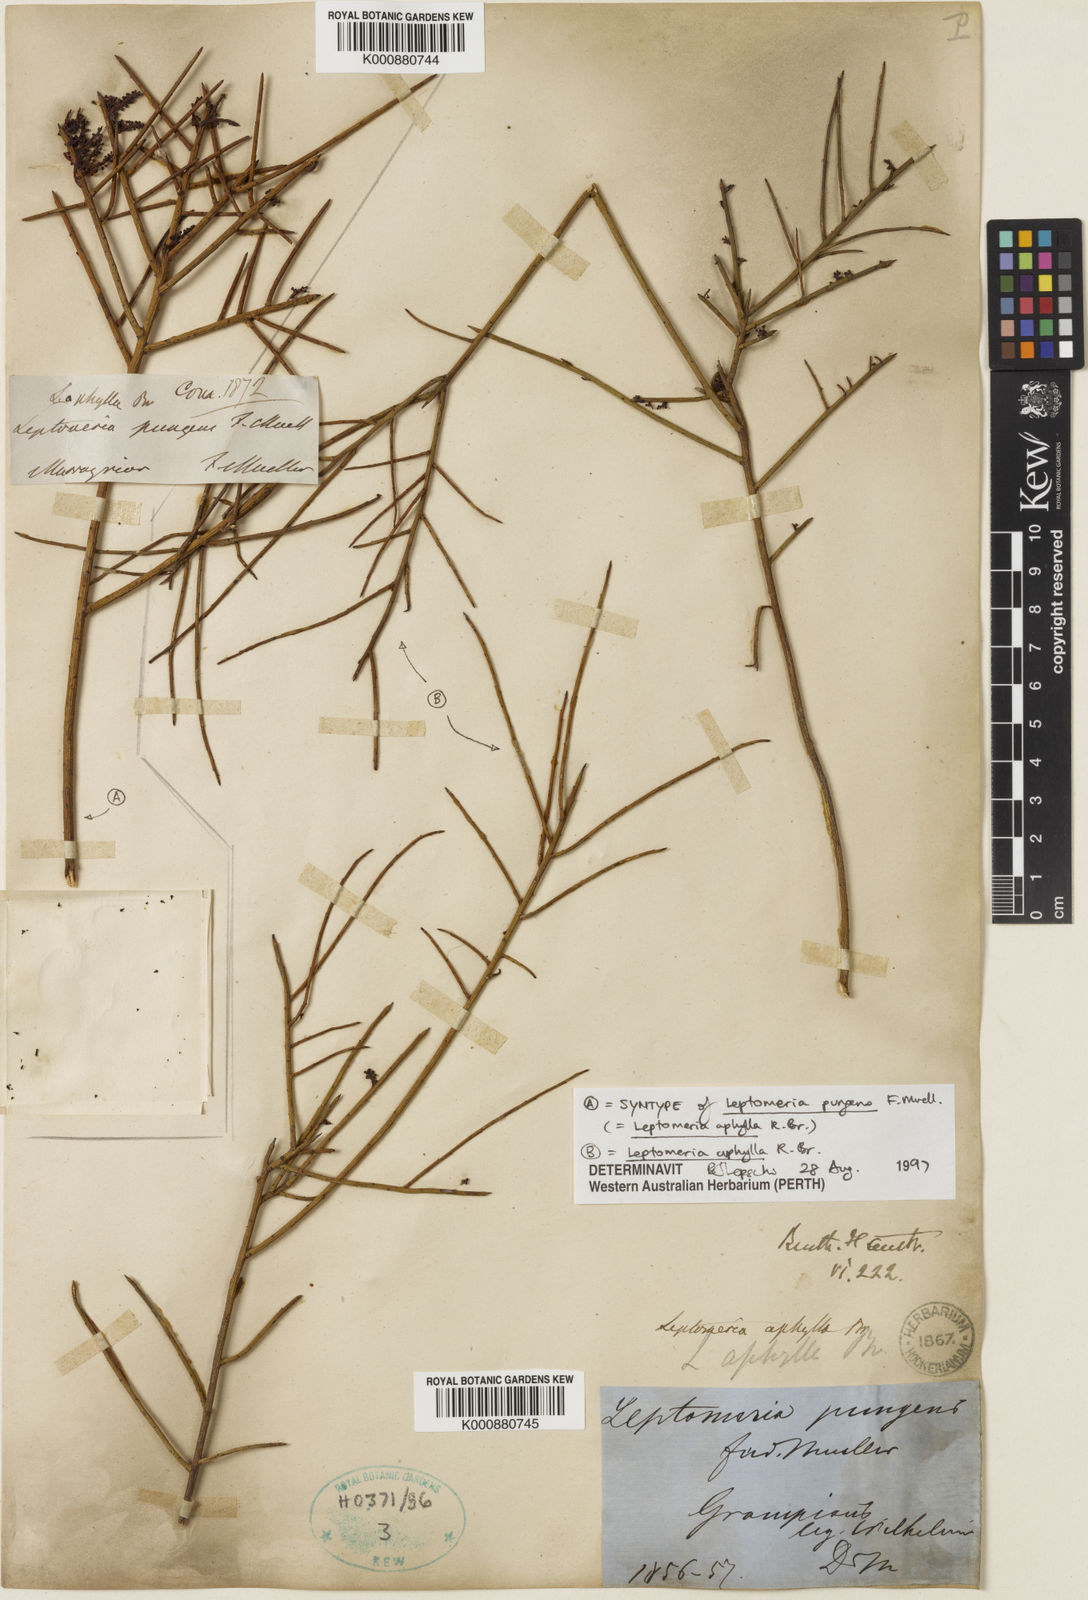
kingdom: Plantae
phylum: Tracheophyta
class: Magnoliopsida
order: Santalales
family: Amphorogynaceae
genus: Leptomeria
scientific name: Leptomeria aphylla
